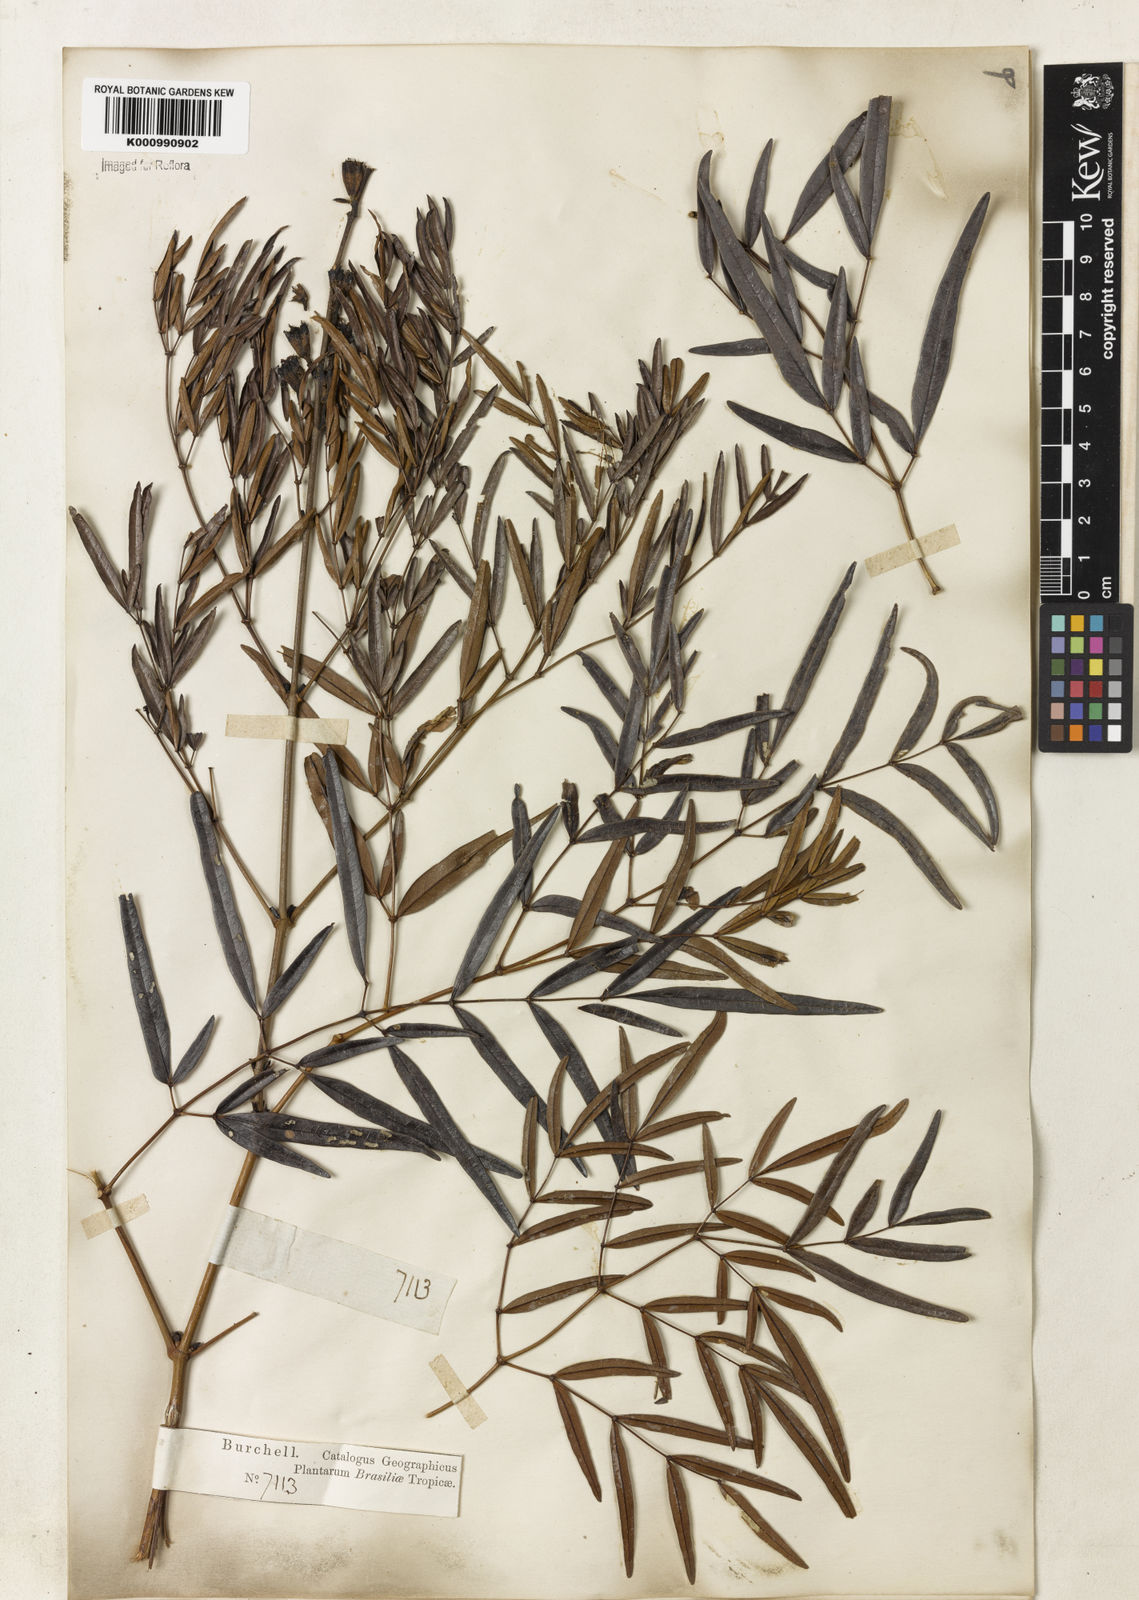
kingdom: Plantae
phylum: Tracheophyta
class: Magnoliopsida
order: Lamiales
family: Bignoniaceae
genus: Adenocalymma
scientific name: Adenocalymma nodosum
